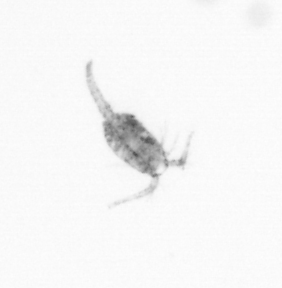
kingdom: Animalia
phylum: Arthropoda
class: Copepoda
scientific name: Copepoda
